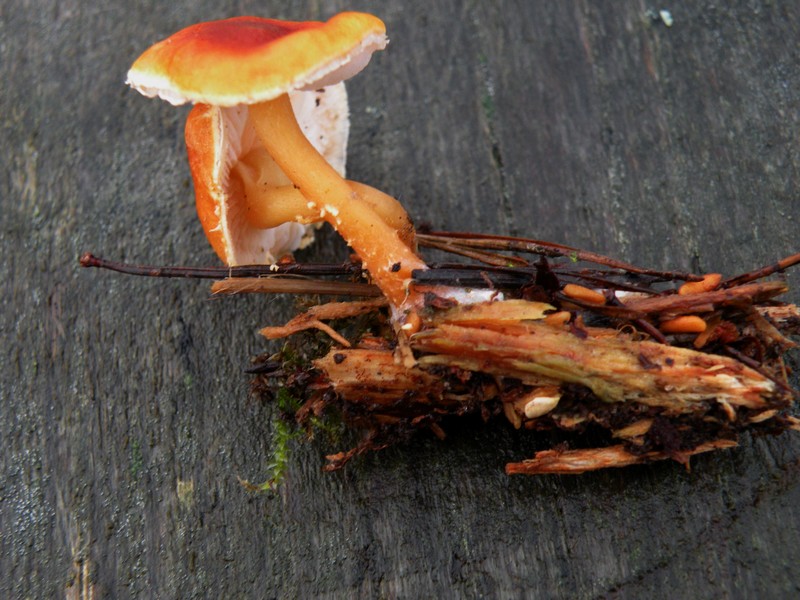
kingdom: Fungi
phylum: Basidiomycota
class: Agaricomycetes
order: Agaricales
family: Tricholomataceae
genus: Cystoderma
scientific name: Cystoderma simulatum
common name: ved-grynhat
